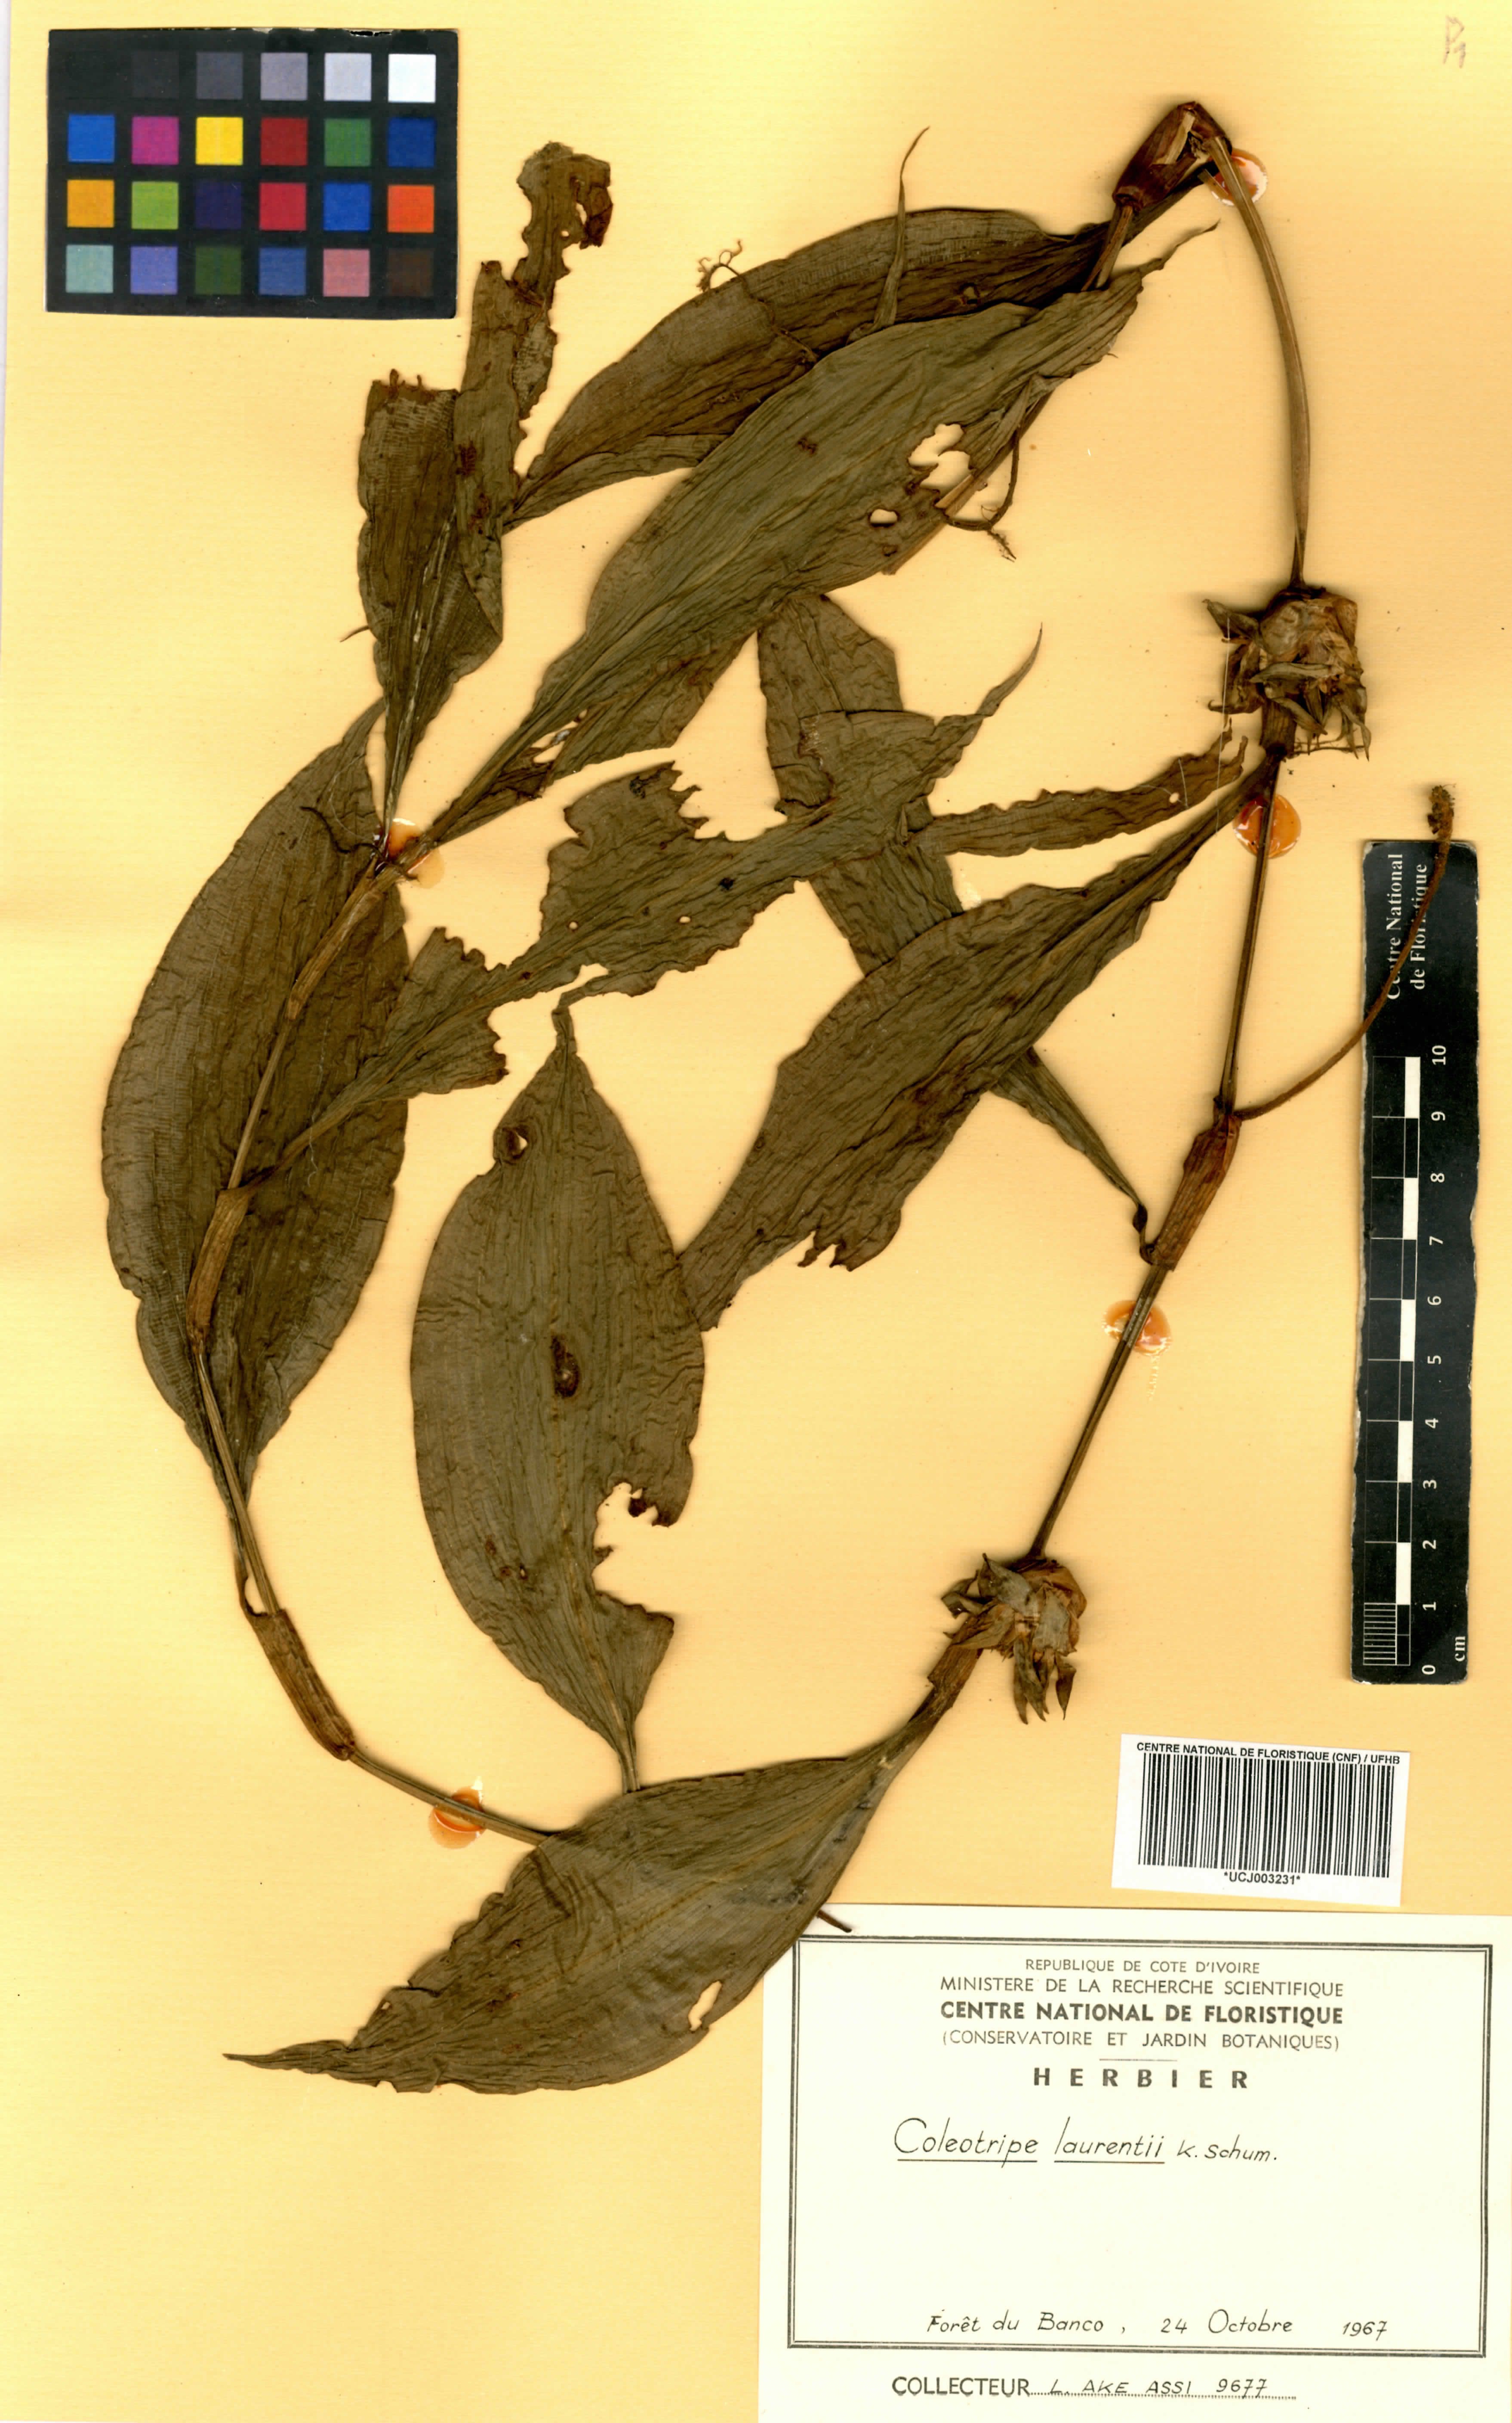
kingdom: Plantae
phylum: Tracheophyta
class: Liliopsida
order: Commelinales
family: Commelinaceae
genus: Coleotrype
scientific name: Coleotrype laurentii
